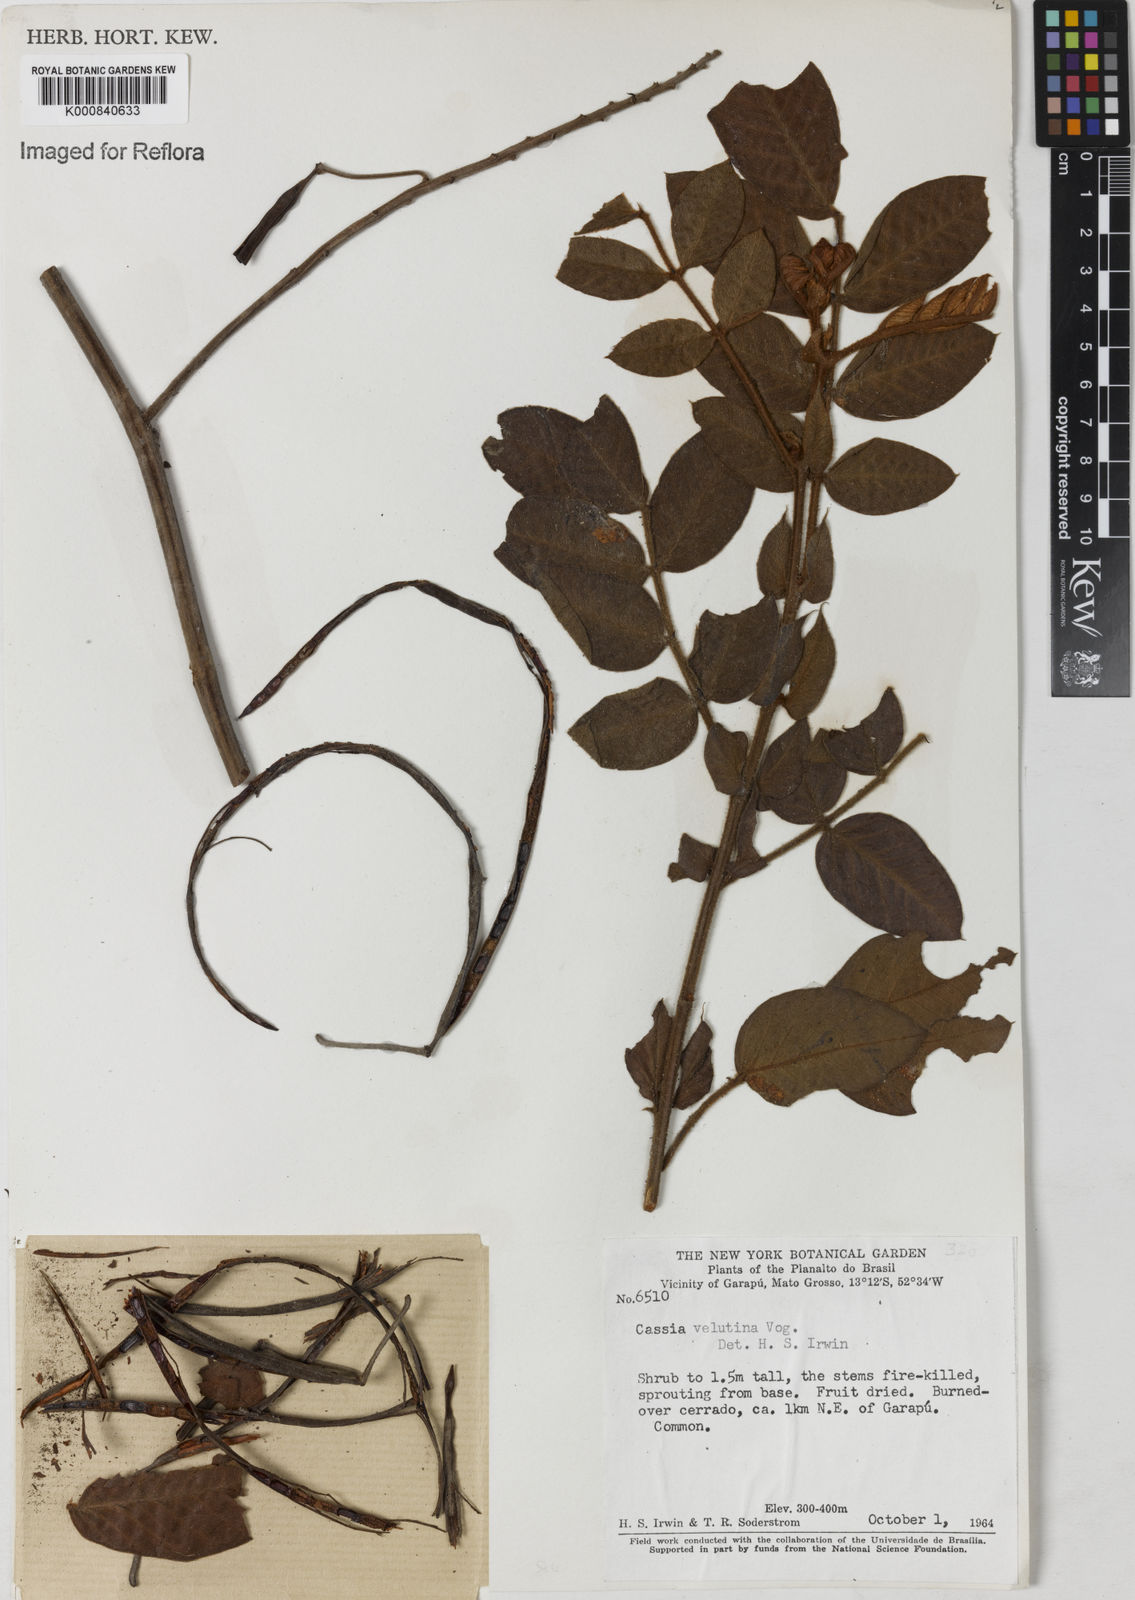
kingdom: Plantae
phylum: Tracheophyta
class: Magnoliopsida
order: Fabales
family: Fabaceae
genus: Senna
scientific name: Senna velutina
